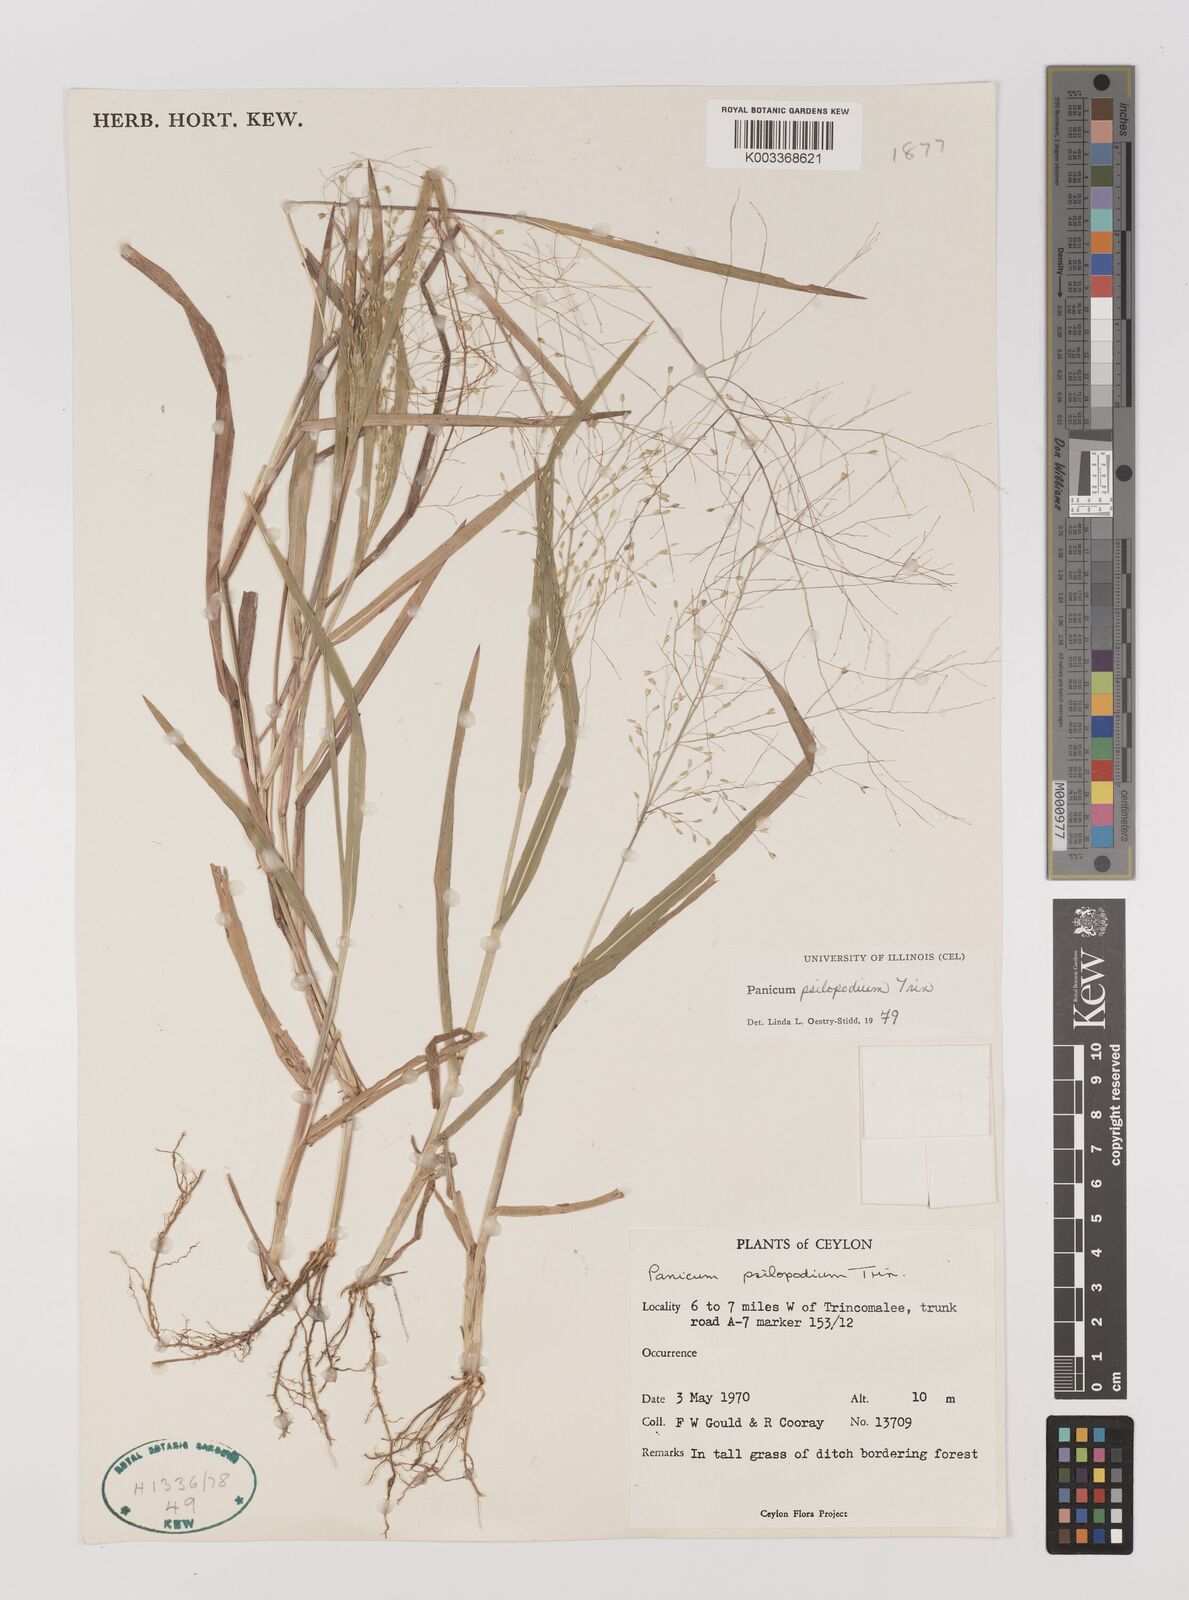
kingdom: Plantae
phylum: Tracheophyta
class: Liliopsida
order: Poales
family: Poaceae
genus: Panicum
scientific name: Panicum sumatrense
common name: Little millet
